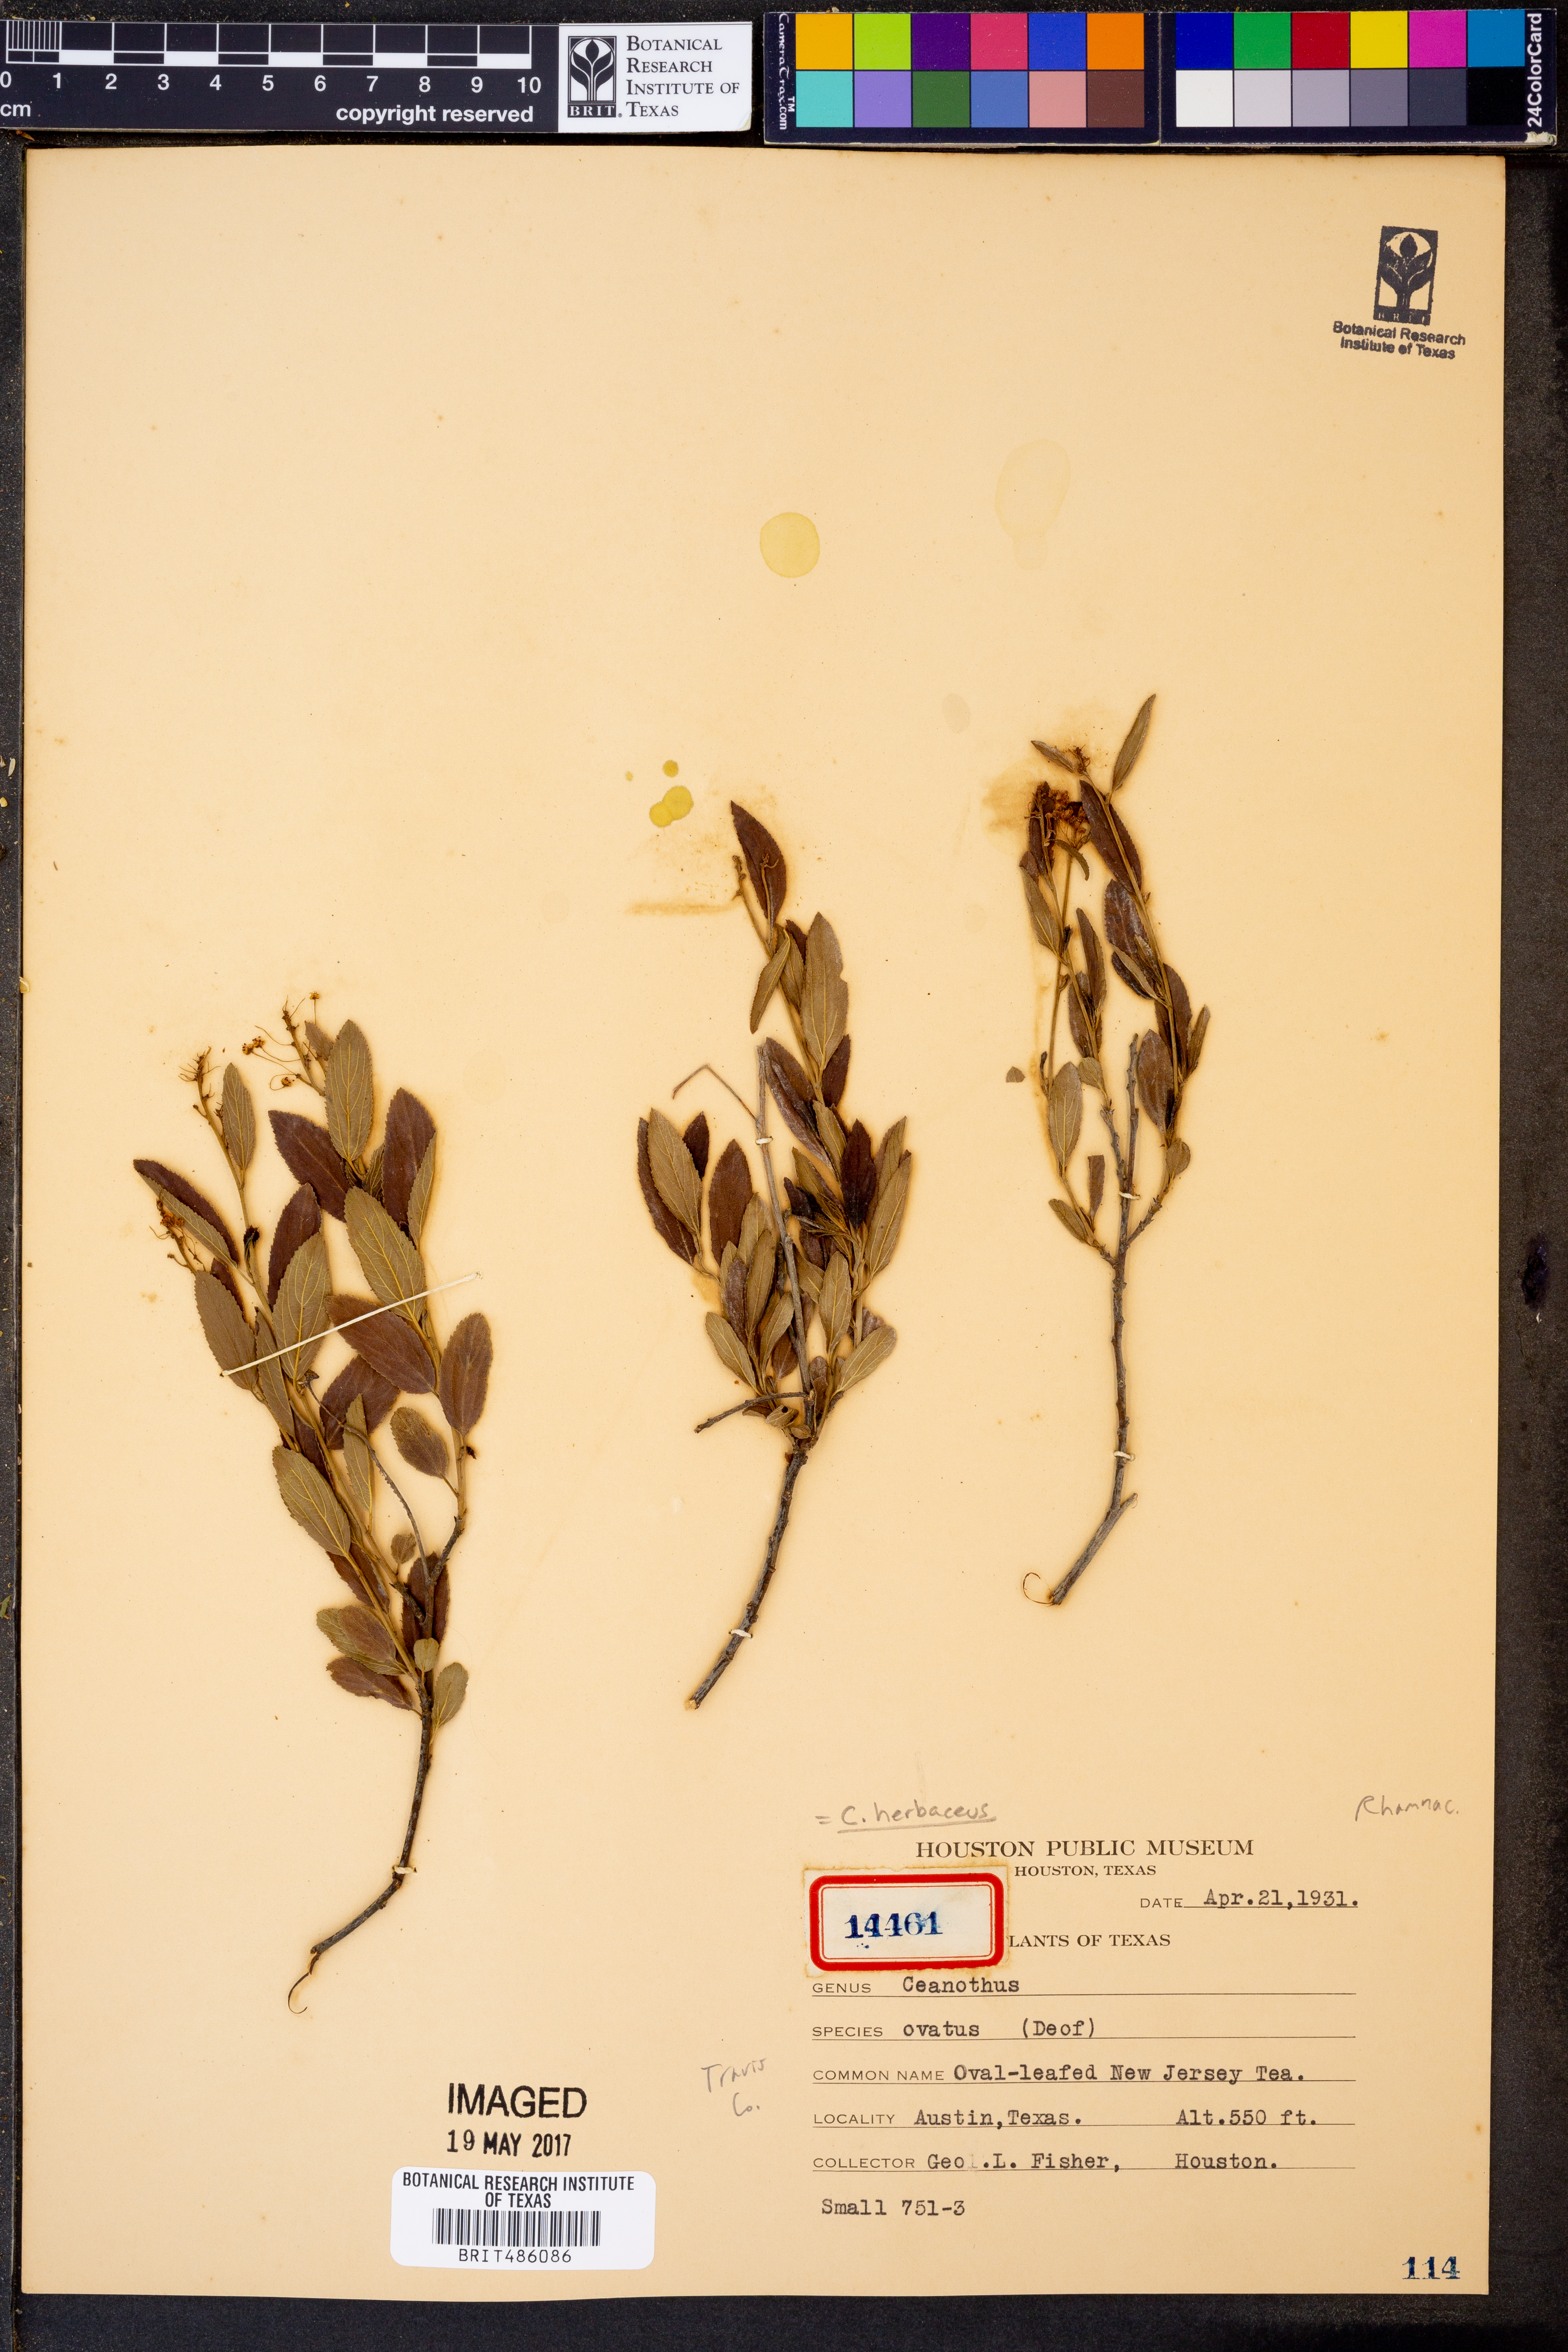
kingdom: Plantae
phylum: Tracheophyta
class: Magnoliopsida
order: Rosales
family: Rhamnaceae
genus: Ceanothus
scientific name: Ceanothus herbaceus
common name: Inland ceanothus
